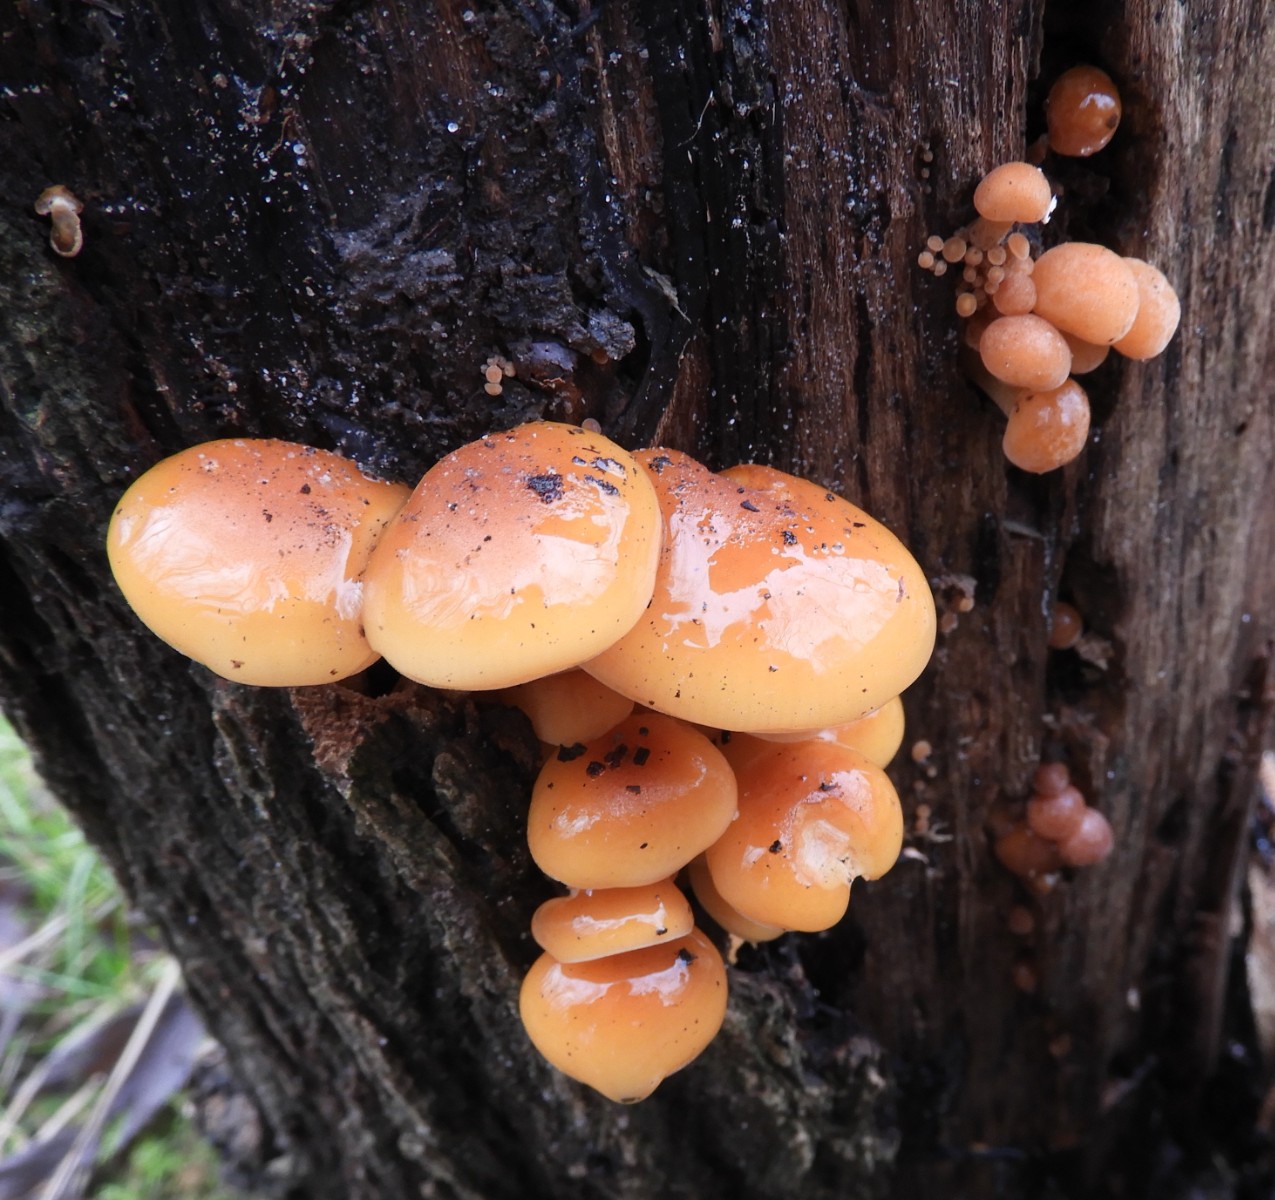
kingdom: Fungi
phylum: Basidiomycota
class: Agaricomycetes
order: Agaricales
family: Physalacriaceae
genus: Flammulina
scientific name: Flammulina velutipes
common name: gul fløjlsfod
